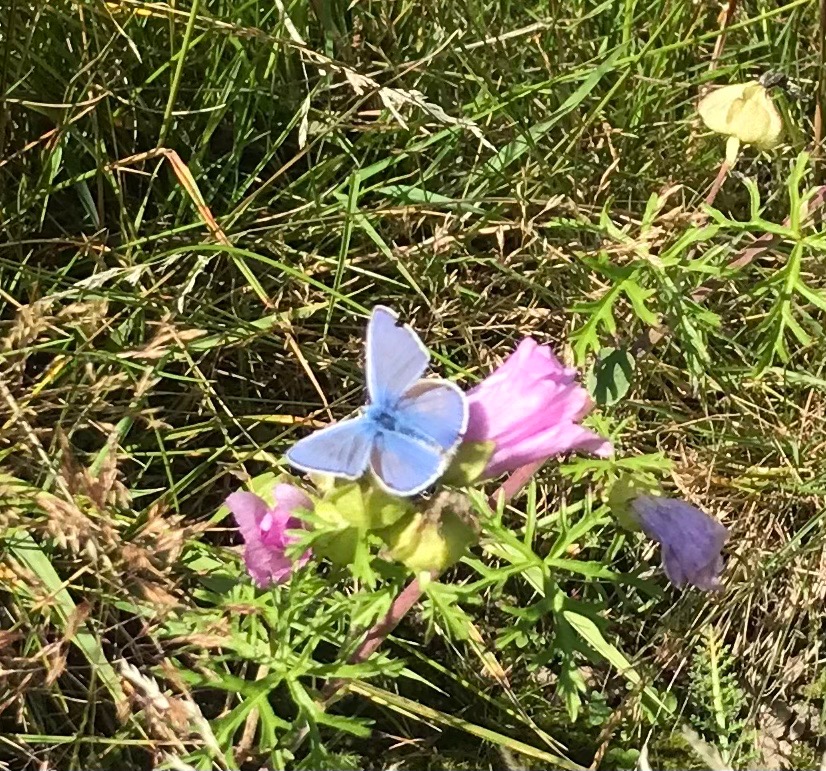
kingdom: Animalia
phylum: Arthropoda
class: Insecta
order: Lepidoptera
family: Lycaenidae
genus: Polyommatus
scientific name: Polyommatus icarus
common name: Almindelig blåfugl
